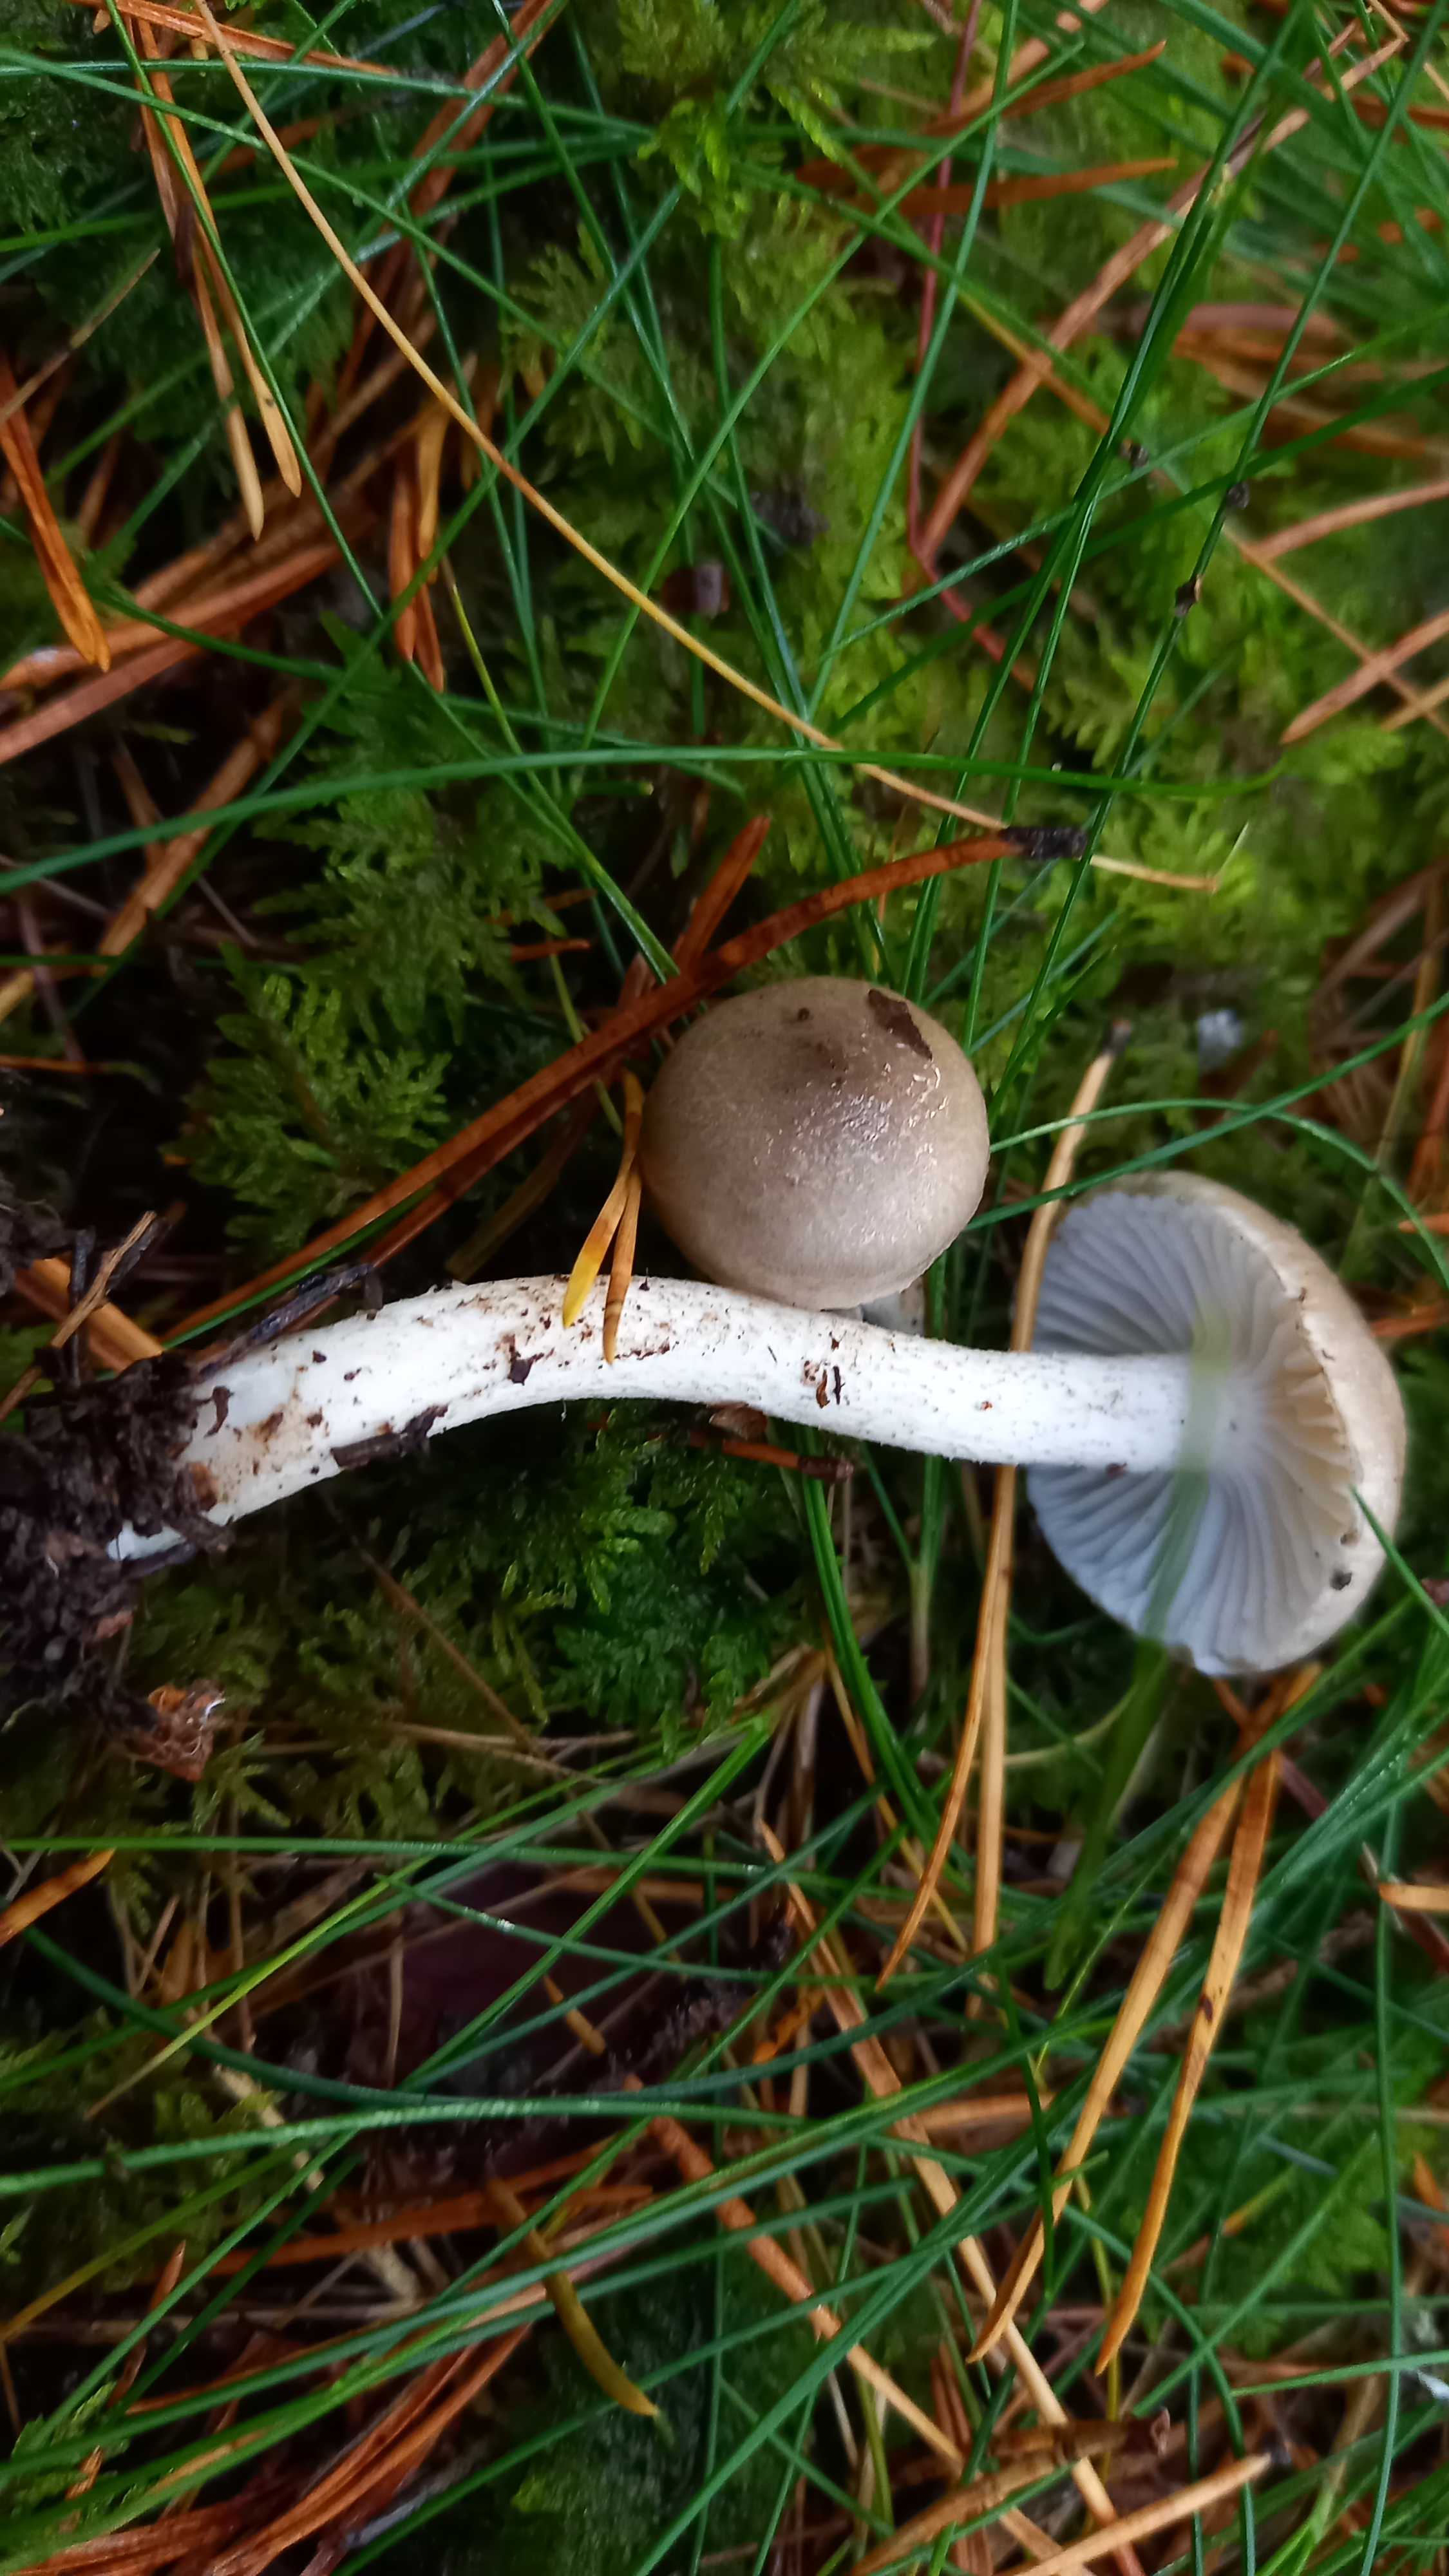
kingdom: Fungi
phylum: Basidiomycota
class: Agaricomycetes
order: Agaricales
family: Hygrophoraceae
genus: Hygrophorus
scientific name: Hygrophorus
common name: sneglehat
